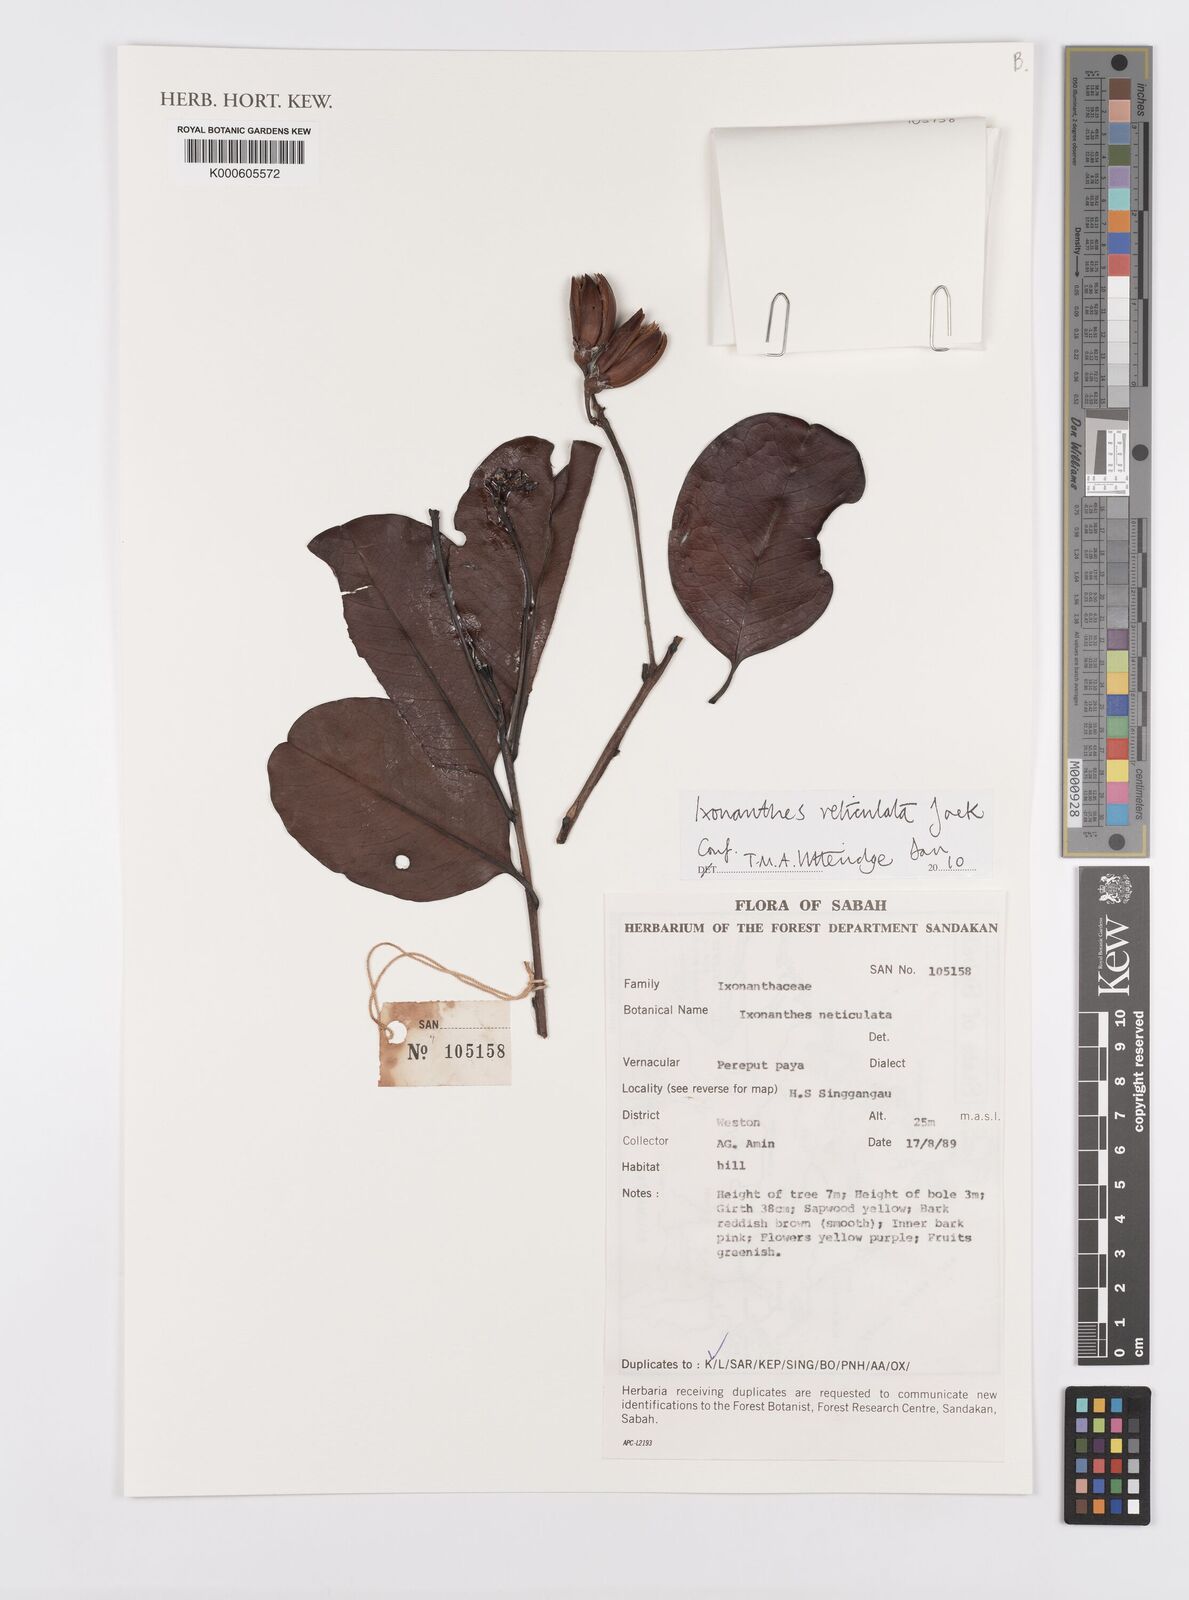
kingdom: Plantae
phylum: Tracheophyta
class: Magnoliopsida
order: Malpighiales
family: Ixonanthaceae
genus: Ixonanthes
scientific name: Ixonanthes reticulata
